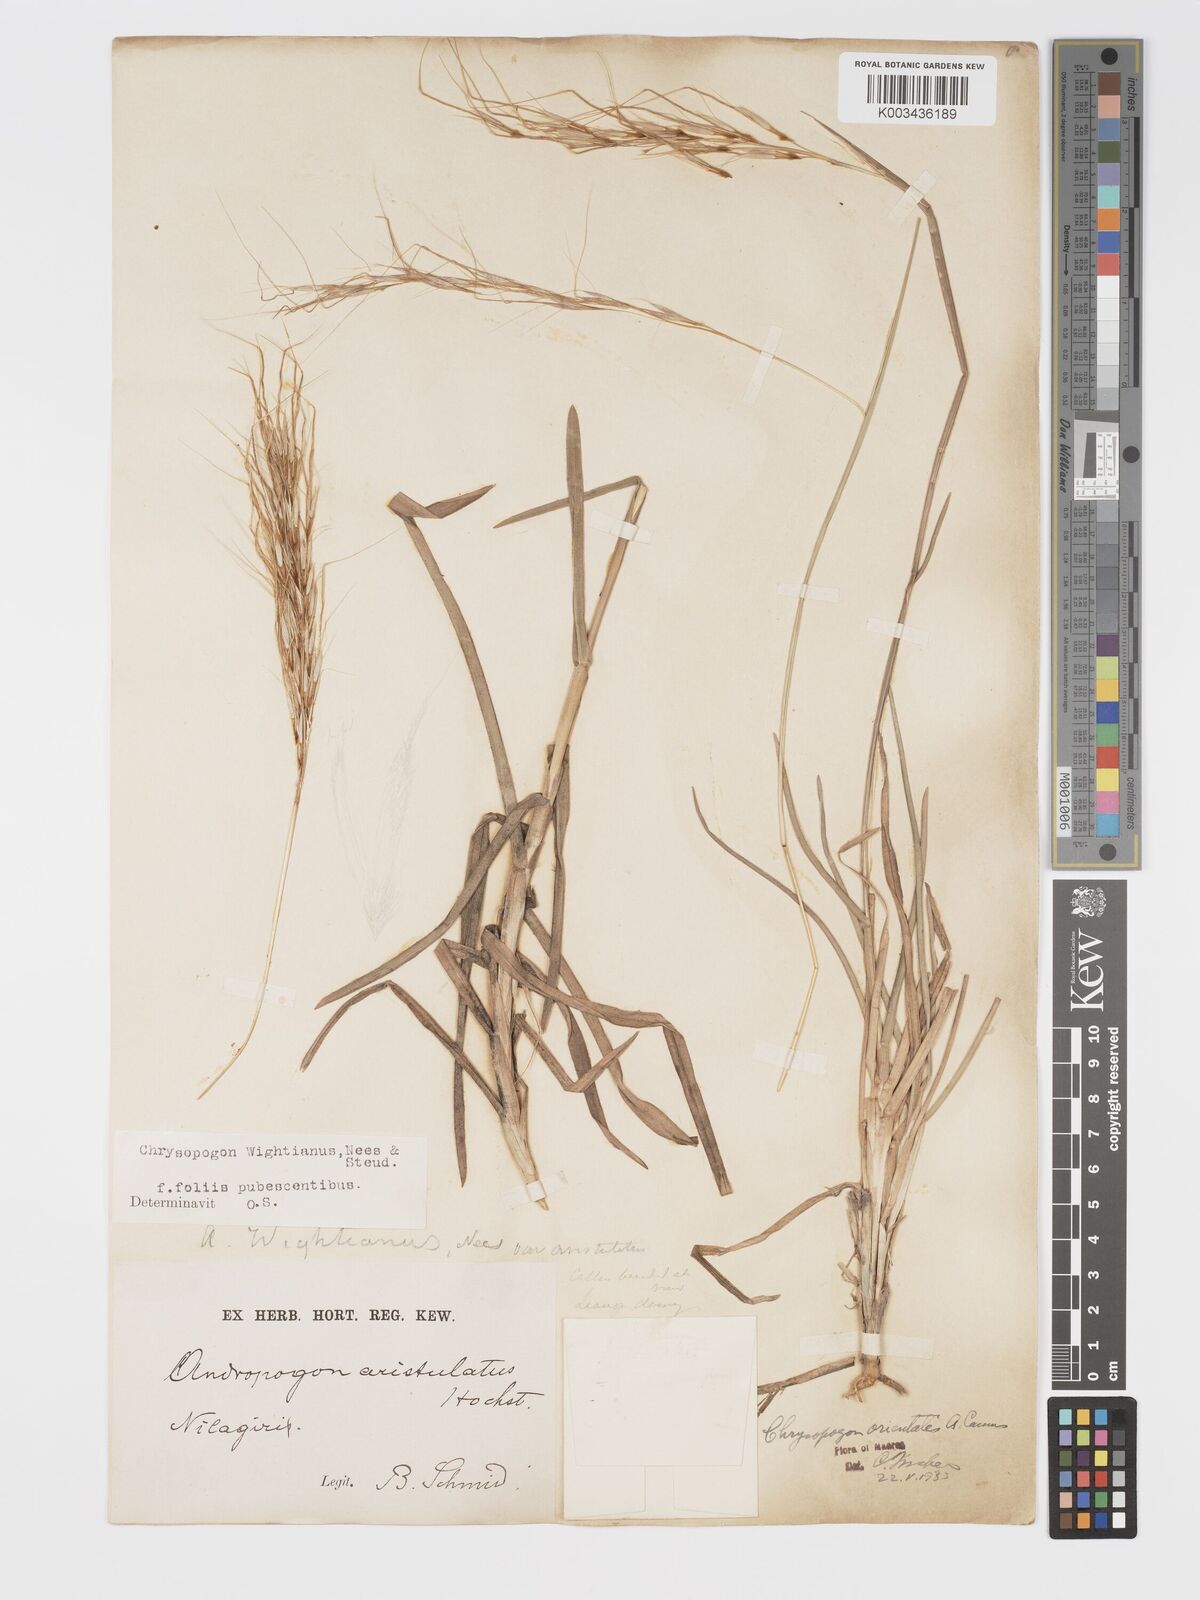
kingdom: Plantae
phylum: Tracheophyta
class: Liliopsida
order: Poales
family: Poaceae
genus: Chrysopogon
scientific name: Chrysopogon orientalis
